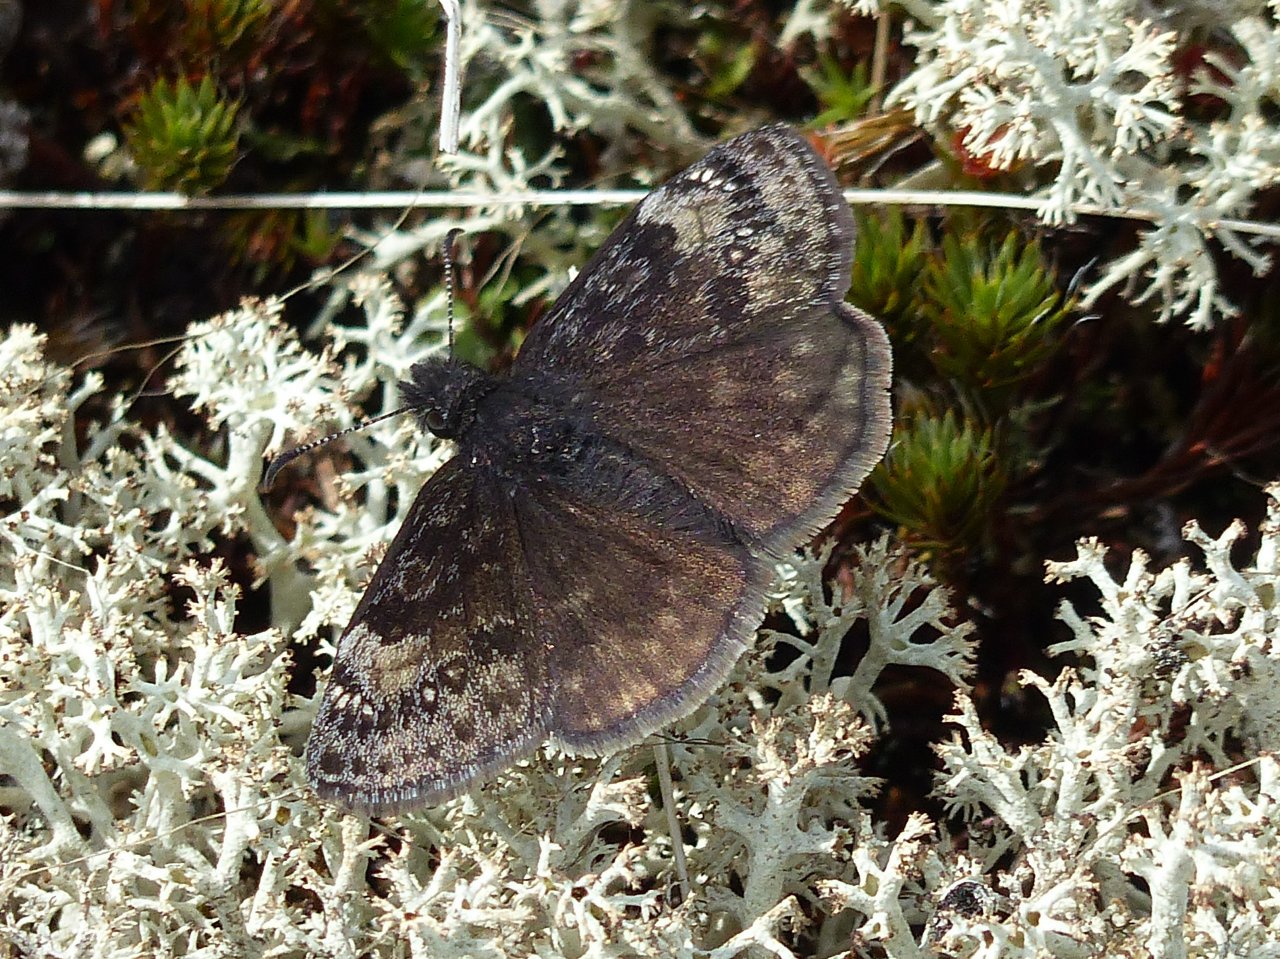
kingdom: Animalia
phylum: Arthropoda
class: Insecta
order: Lepidoptera
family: Hesperiidae
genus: Gesta
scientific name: Gesta
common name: Columbine Duskywing
